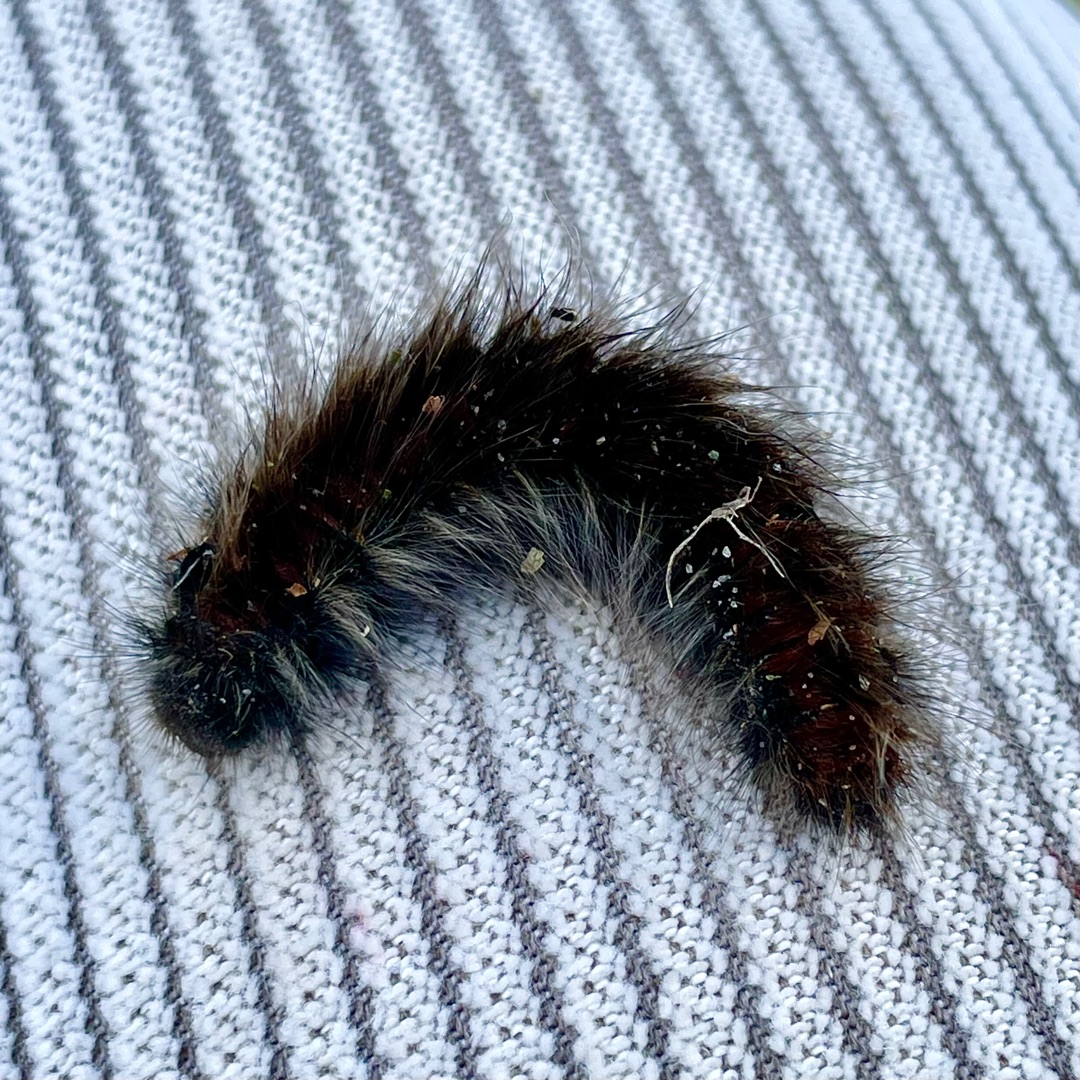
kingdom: Animalia
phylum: Arthropoda
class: Insecta
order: Lepidoptera
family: Lasiocampidae
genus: Macrothylacia
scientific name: Macrothylacia rubi
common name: Brombærspinder
